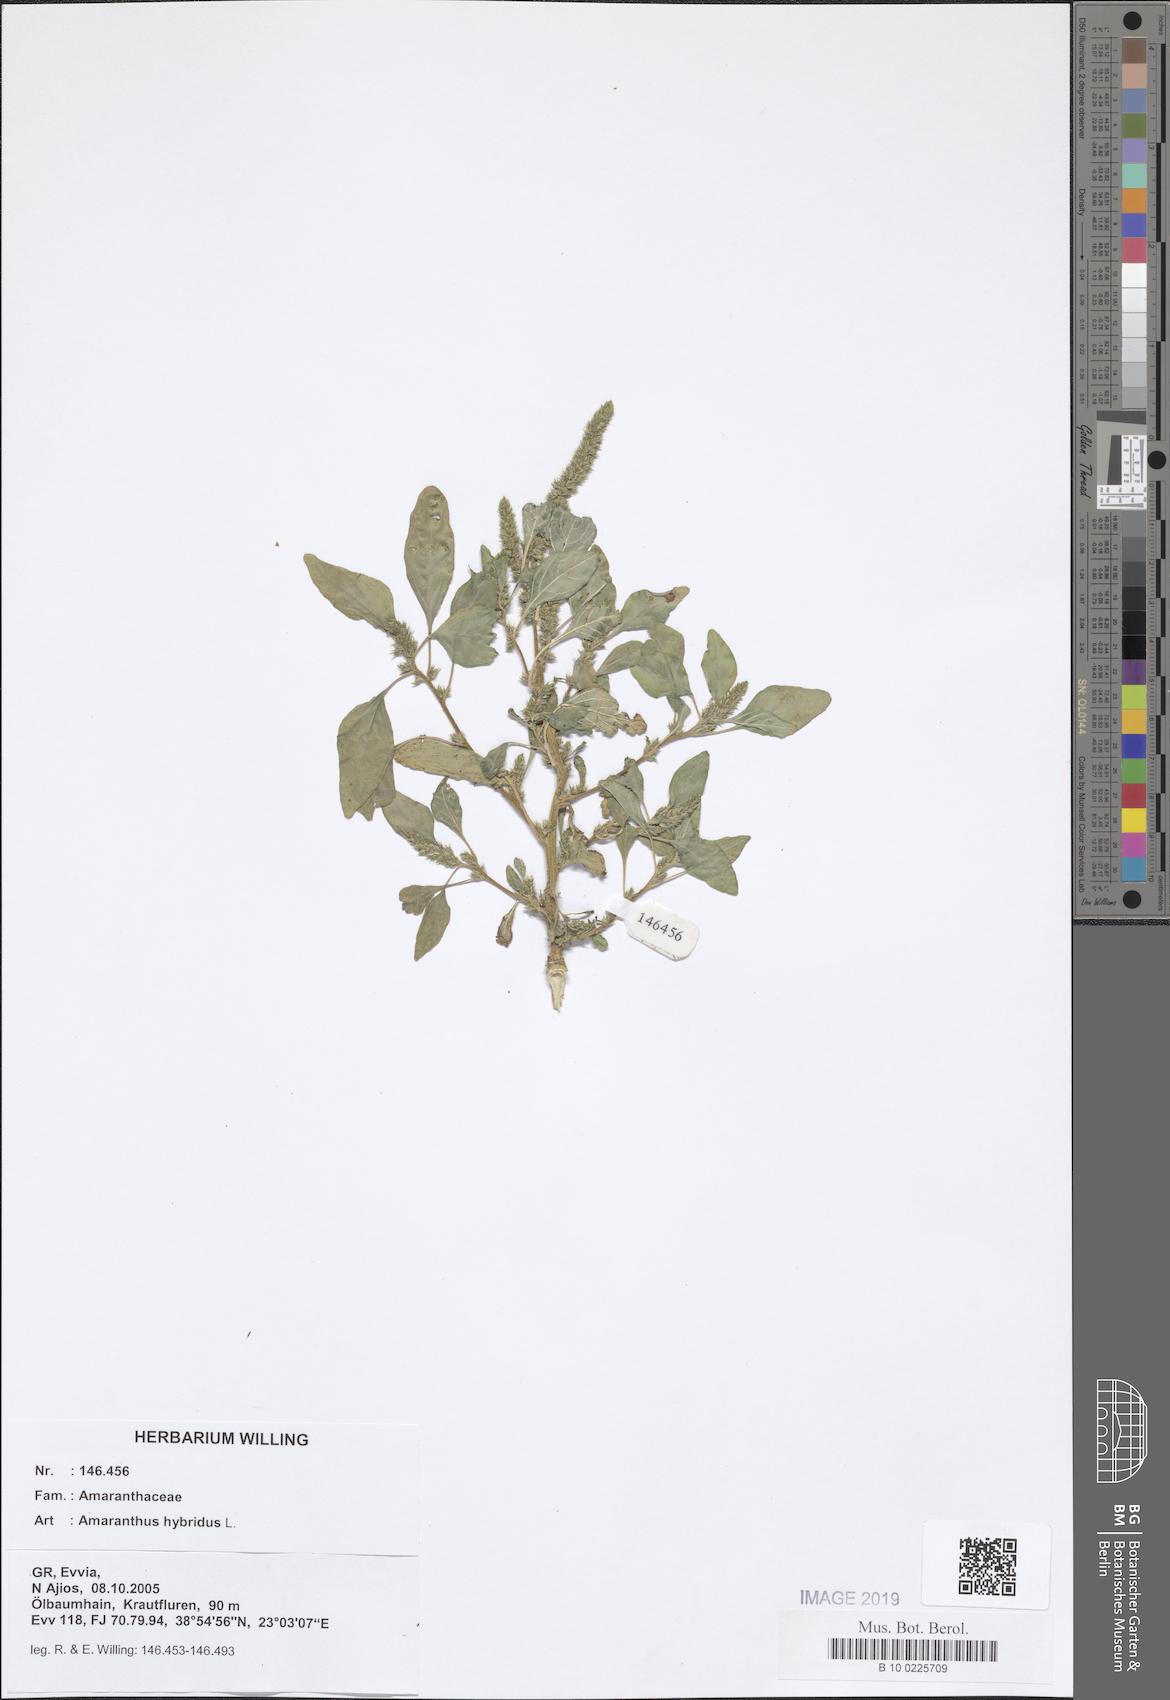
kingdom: Plantae
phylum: Tracheophyta
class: Magnoliopsida
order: Caryophyllales
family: Amaranthaceae
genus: Amaranthus
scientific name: Amaranthus hybridus
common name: Green amaranth
